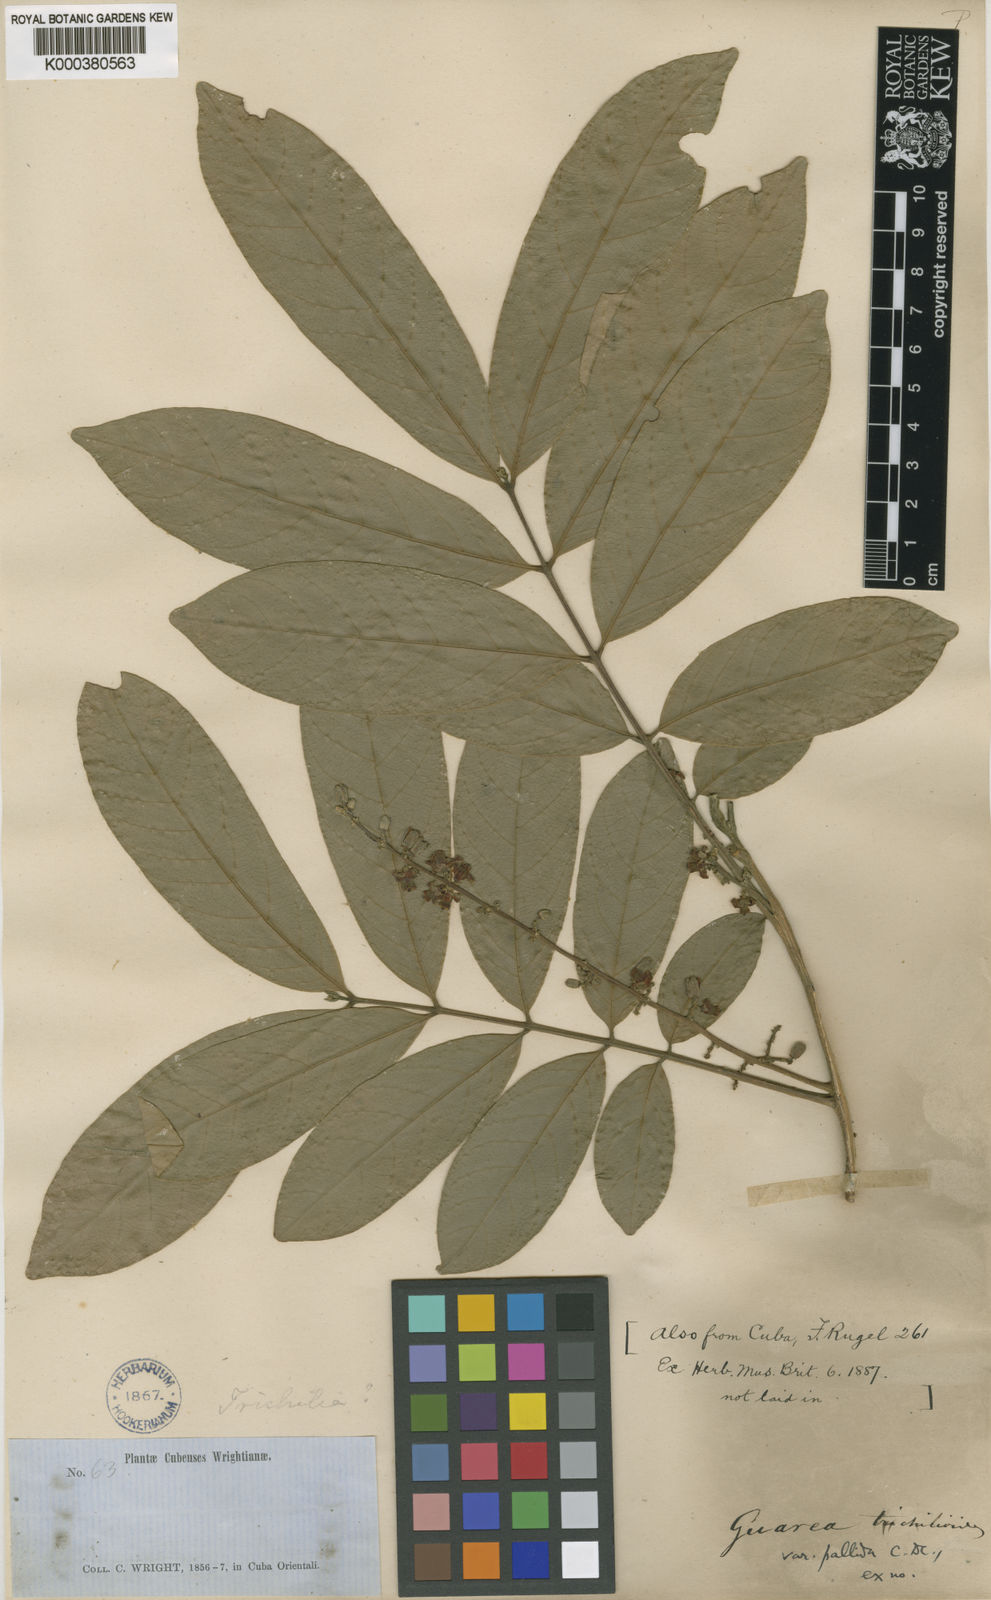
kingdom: Plantae
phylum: Tracheophyta
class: Magnoliopsida
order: Sapindales
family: Meliaceae
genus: Guarea
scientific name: Guarea guidonia
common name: American muskwood
